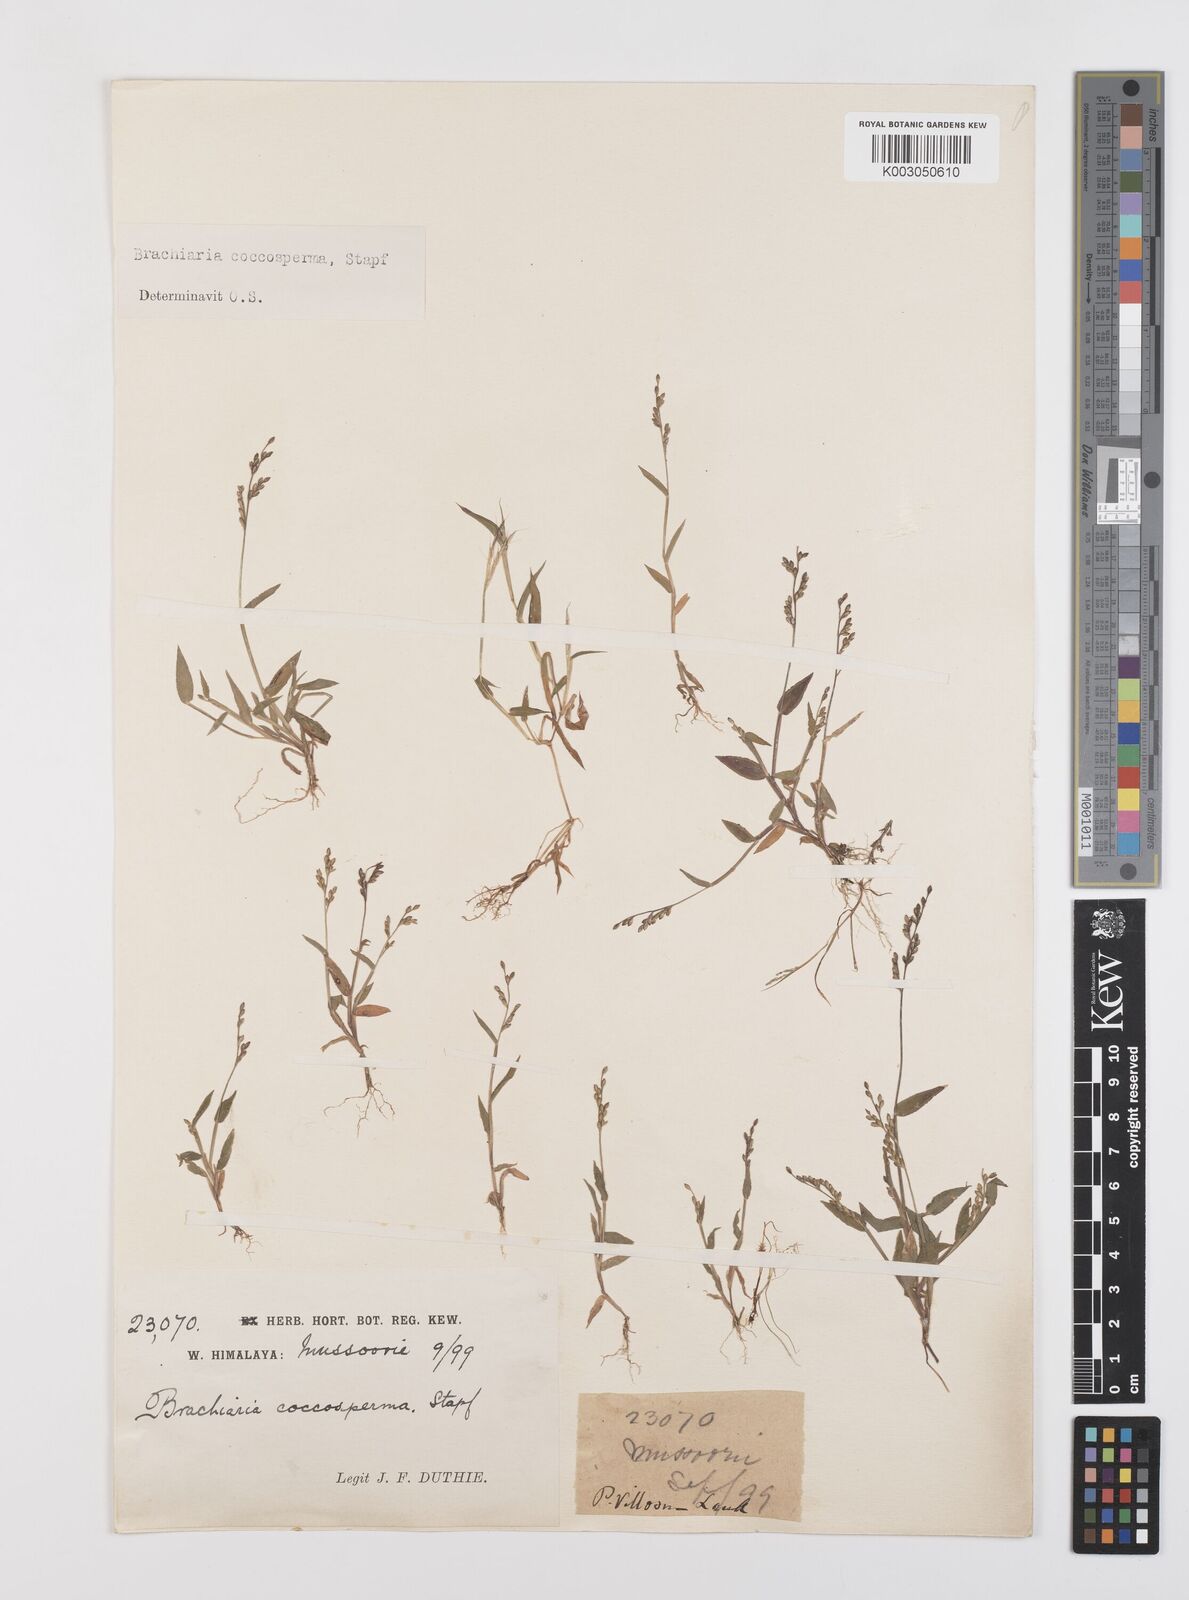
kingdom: Plantae
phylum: Tracheophyta
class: Liliopsida
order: Poales
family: Poaceae
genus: Urochloa
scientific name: Urochloa villosa
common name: Hairy signalgrass
